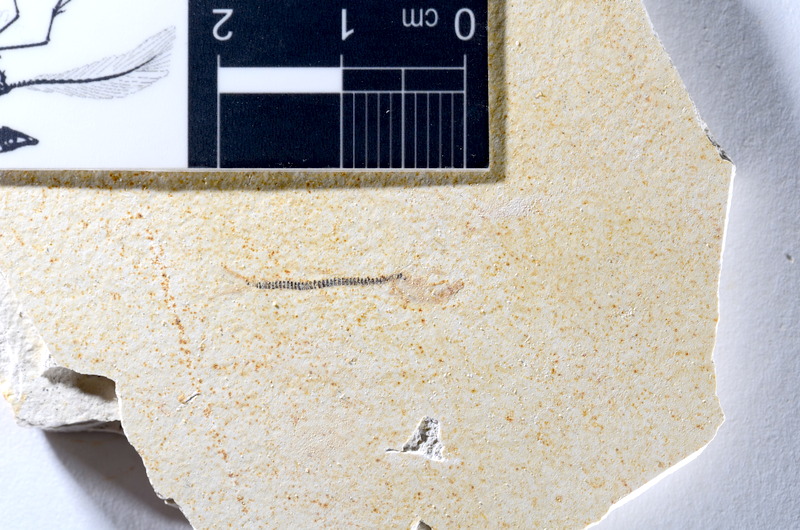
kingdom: Animalia
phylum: Chordata
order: Salmoniformes
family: Orthogonikleithridae
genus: Orthogonikleithrus
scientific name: Orthogonikleithrus hoelli
